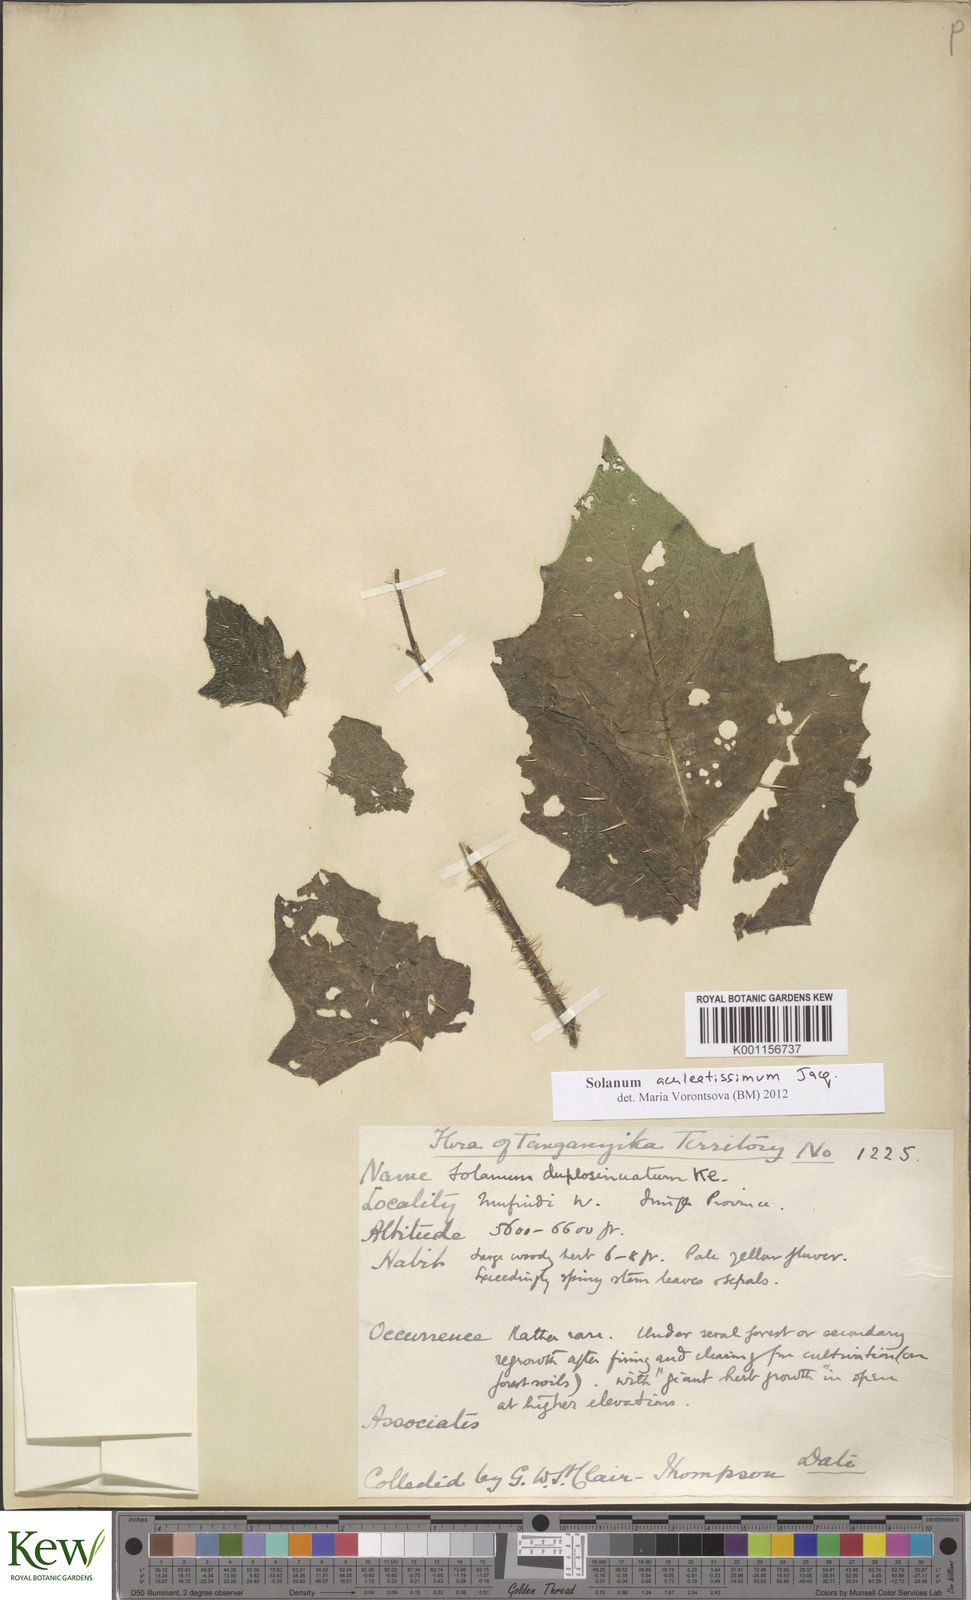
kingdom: Plantae
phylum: Tracheophyta
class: Magnoliopsida
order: Solanales
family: Solanaceae
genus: Solanum
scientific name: Solanum aculeatissimum
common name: Dutch eggplant
